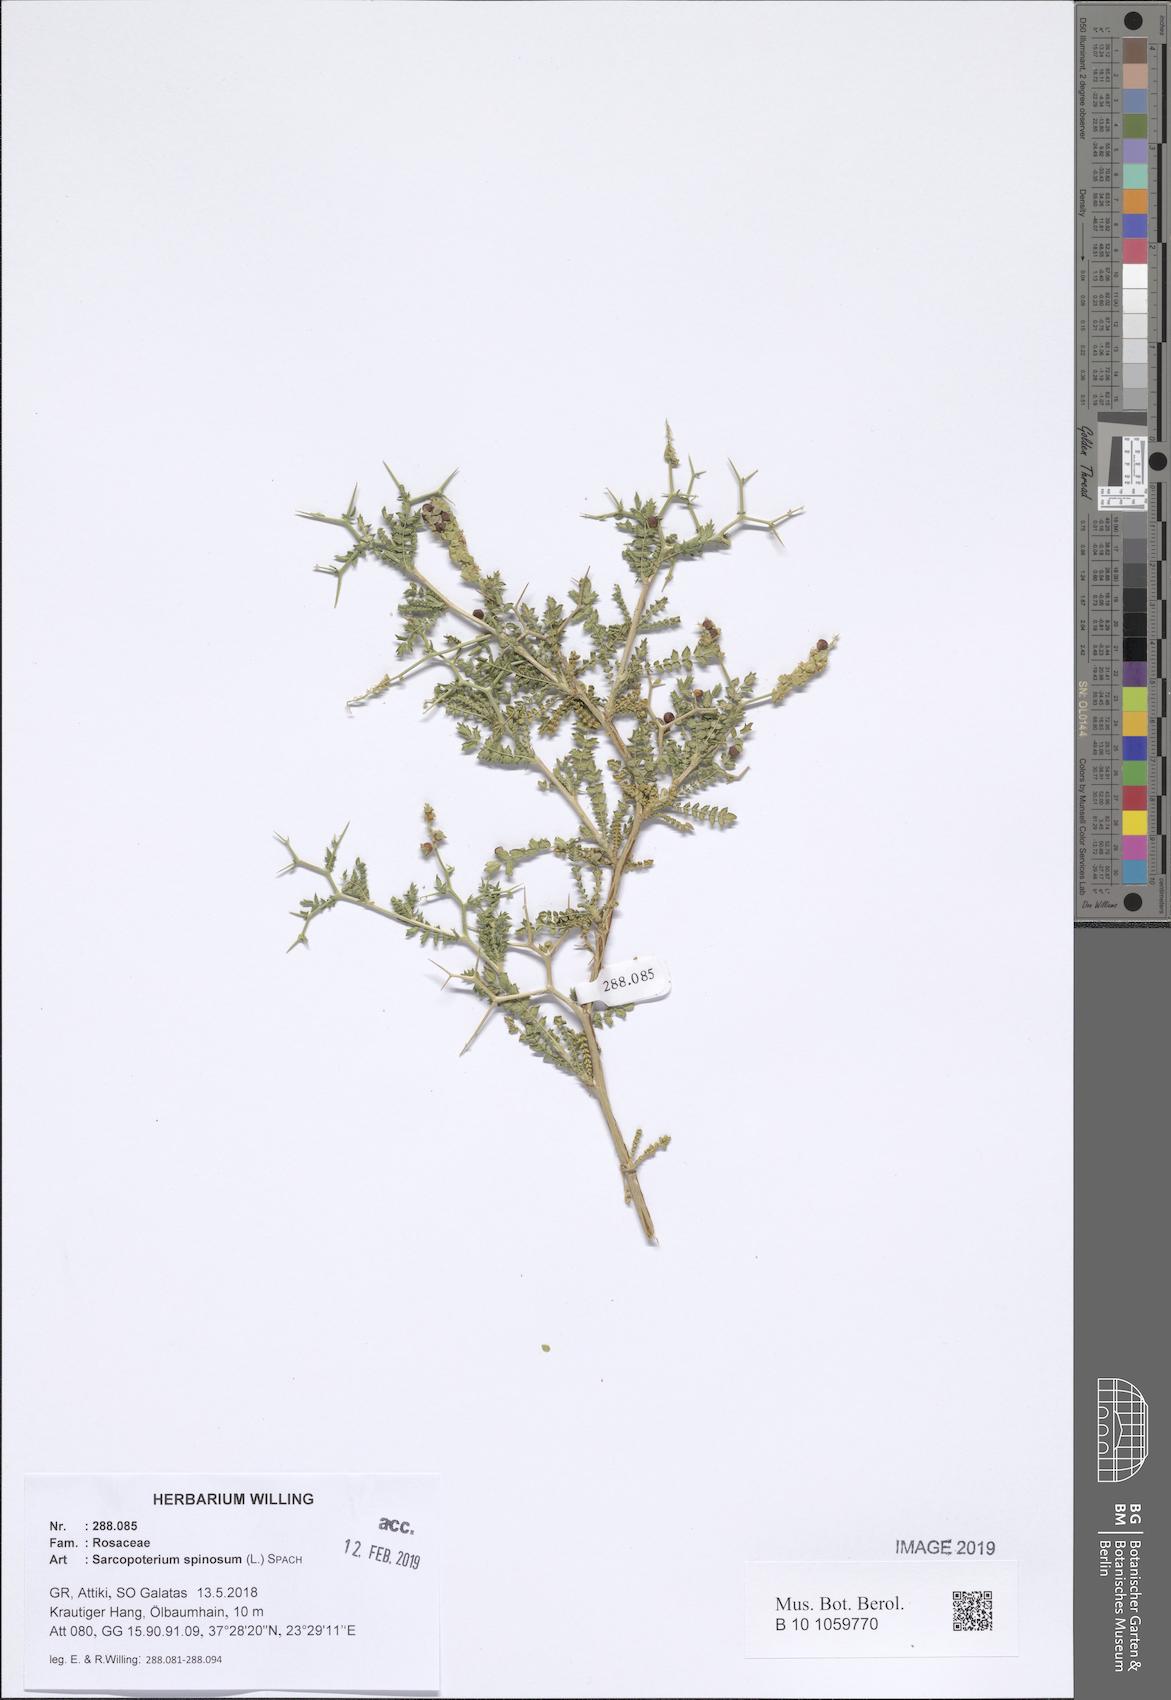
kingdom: Plantae
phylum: Tracheophyta
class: Magnoliopsida
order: Rosales
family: Rosaceae
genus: Sarcopoterium
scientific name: Sarcopoterium spinosum
